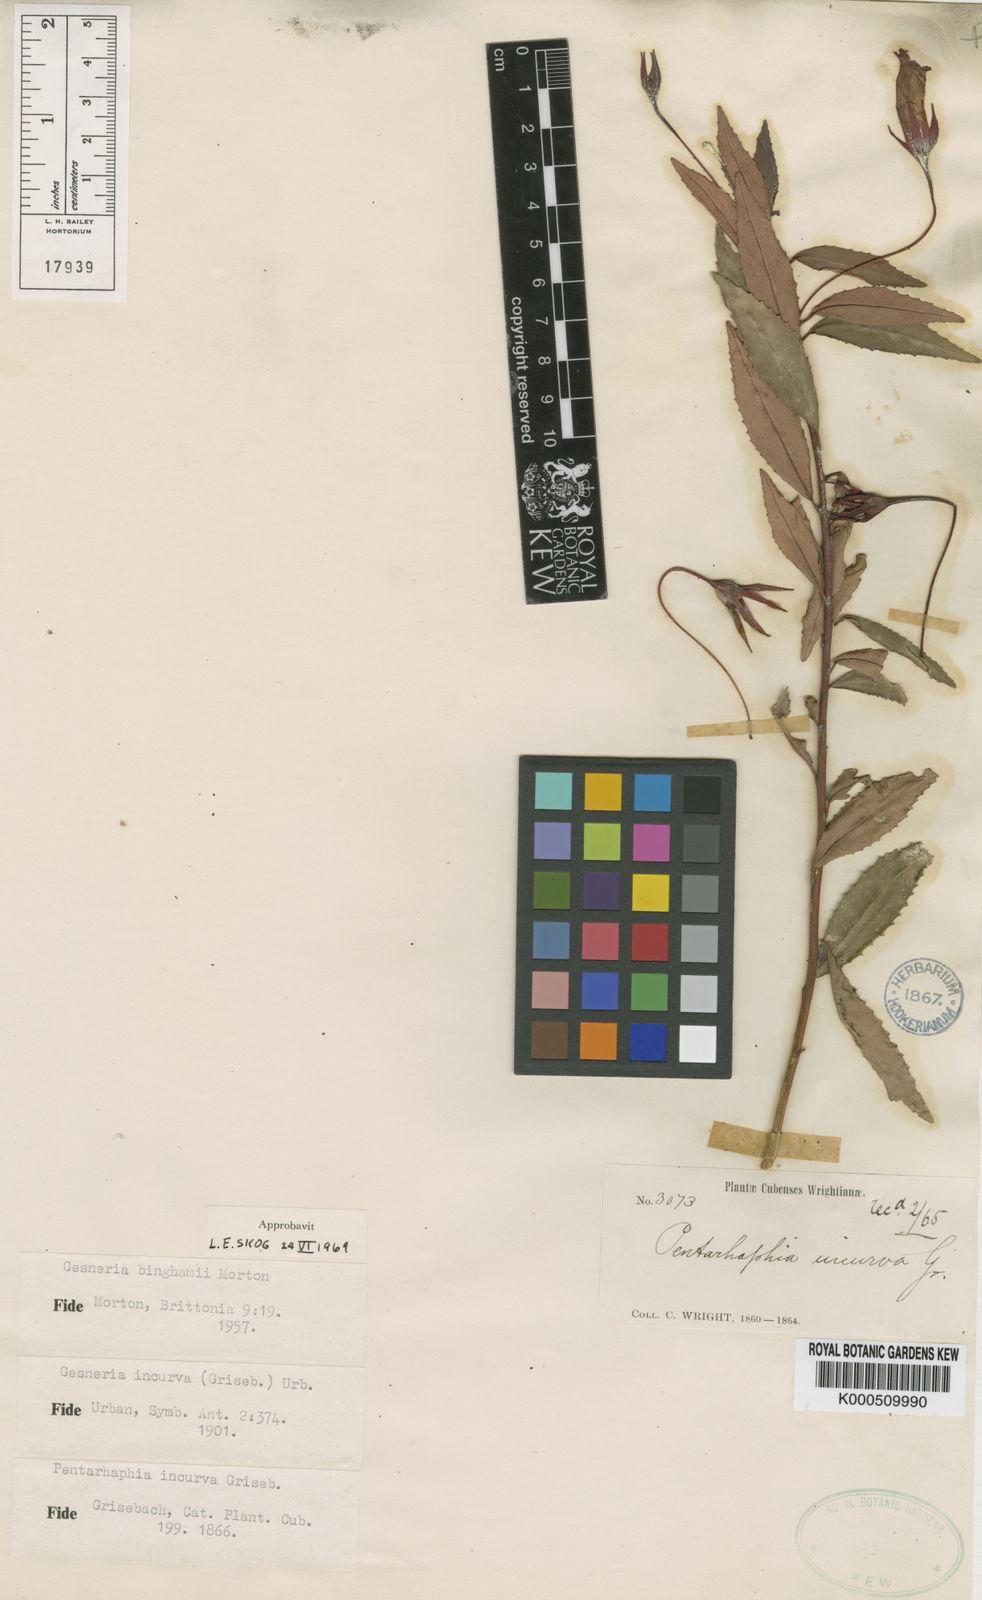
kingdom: Plantae
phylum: Tracheophyta
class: Magnoliopsida
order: Lamiales
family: Gesneriaceae
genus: Gesneria
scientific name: Gesneria binghamii
